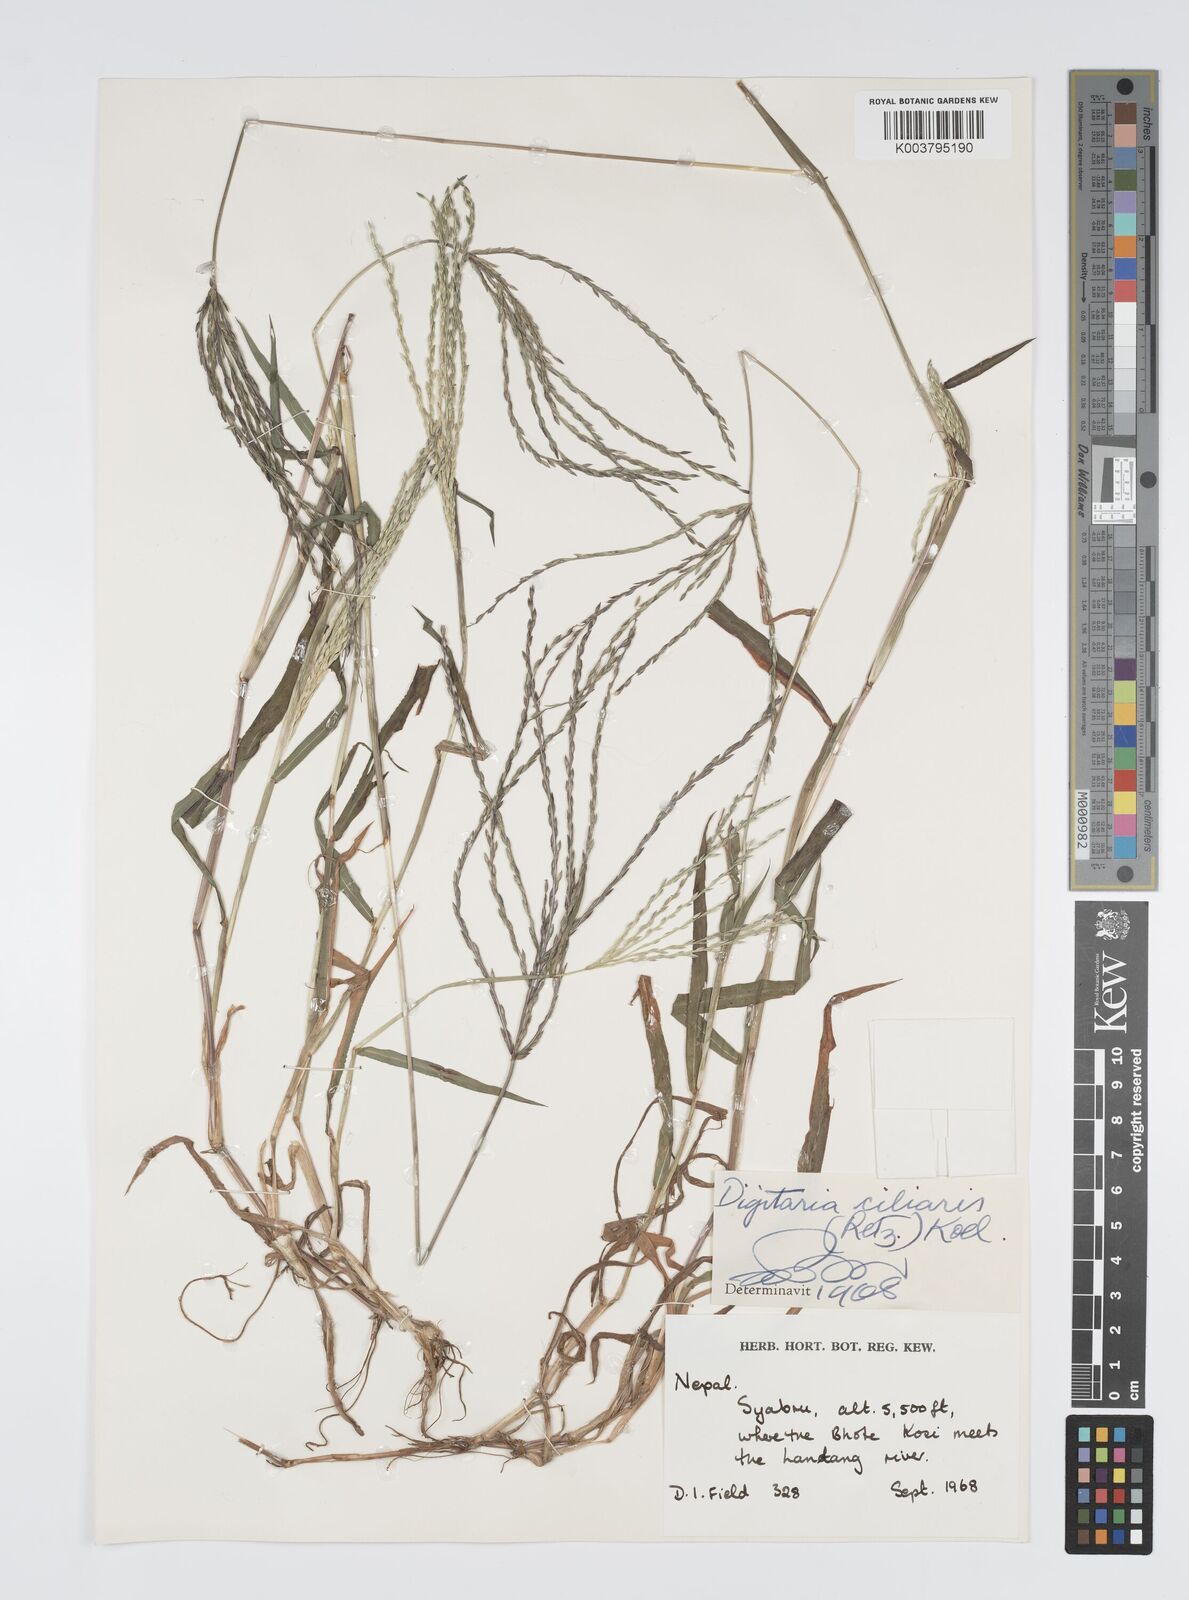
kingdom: Plantae
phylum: Tracheophyta
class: Liliopsida
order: Poales
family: Poaceae
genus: Digitaria
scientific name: Digitaria ciliaris
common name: Tropical finger-grass
